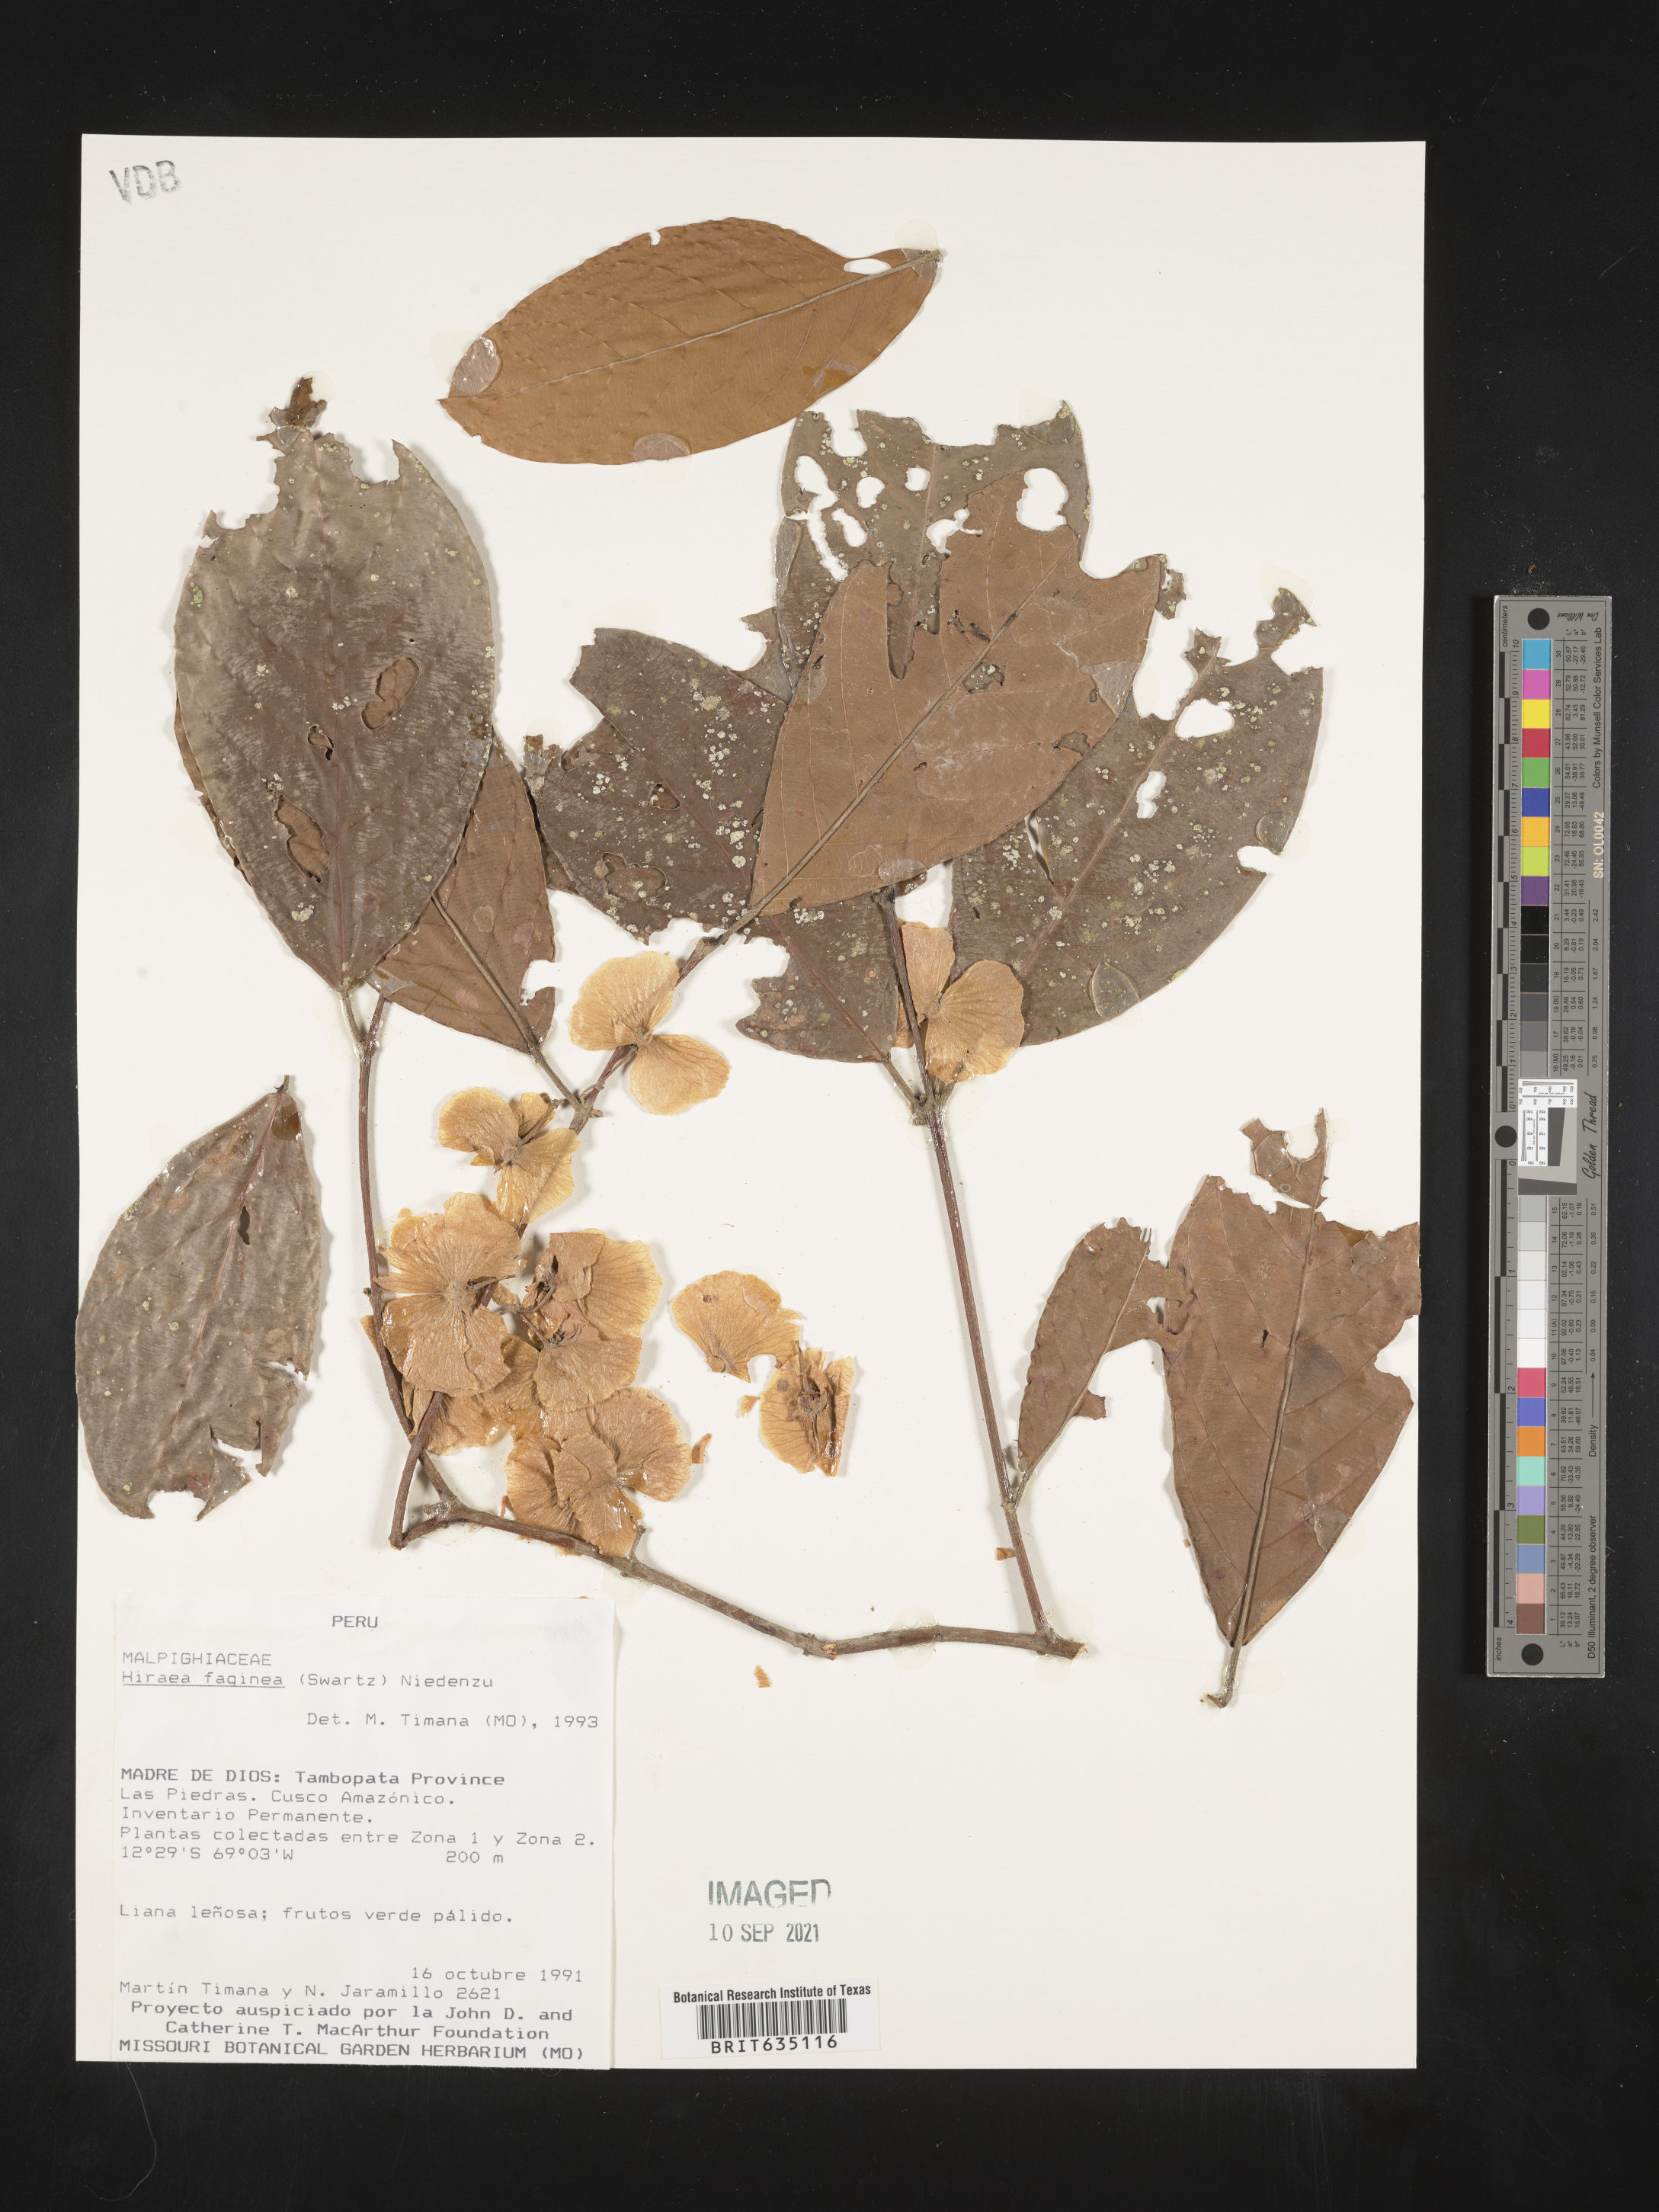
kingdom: Plantae
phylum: Tracheophyta
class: Magnoliopsida
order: Malpighiales
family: Malpighiaceae
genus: Hiraea
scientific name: Hiraea
